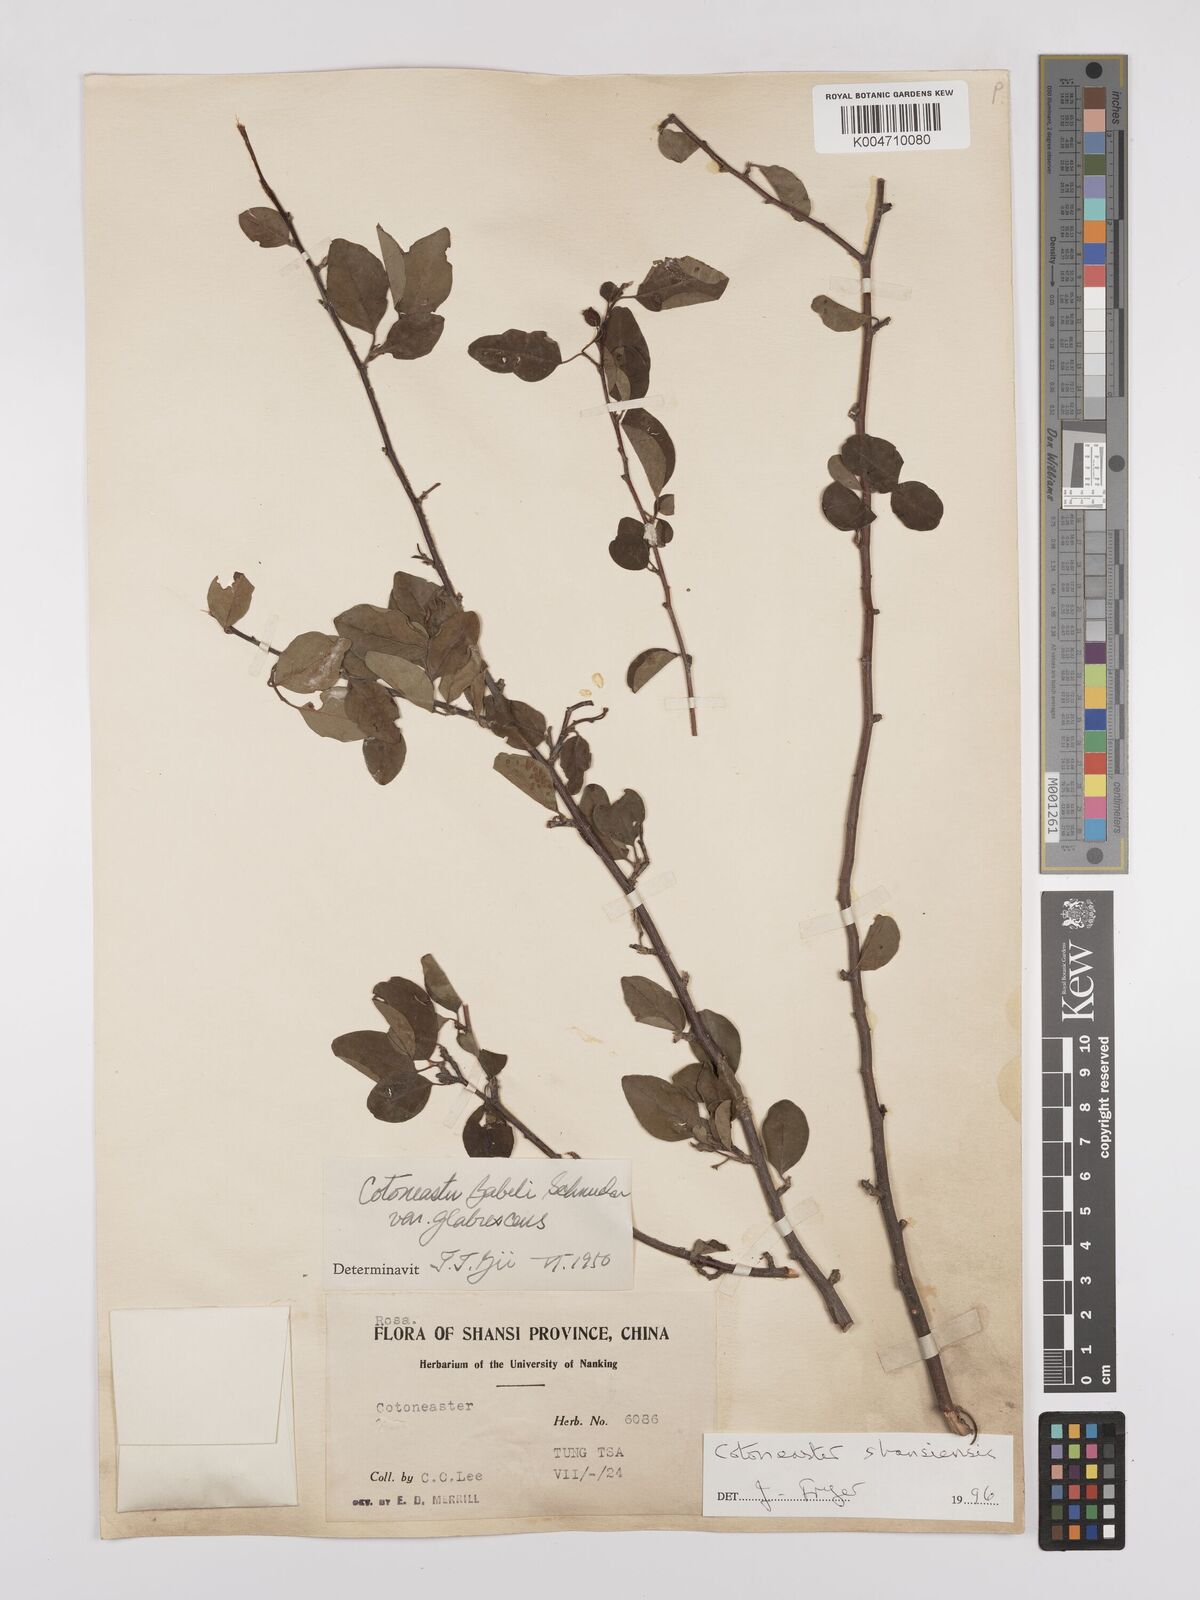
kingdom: Plantae
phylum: Tracheophyta
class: Magnoliopsida
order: Rosales
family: Rosaceae
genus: Cotoneaster
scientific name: Cotoneaster zabelii
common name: Cherryred cotoneaster
